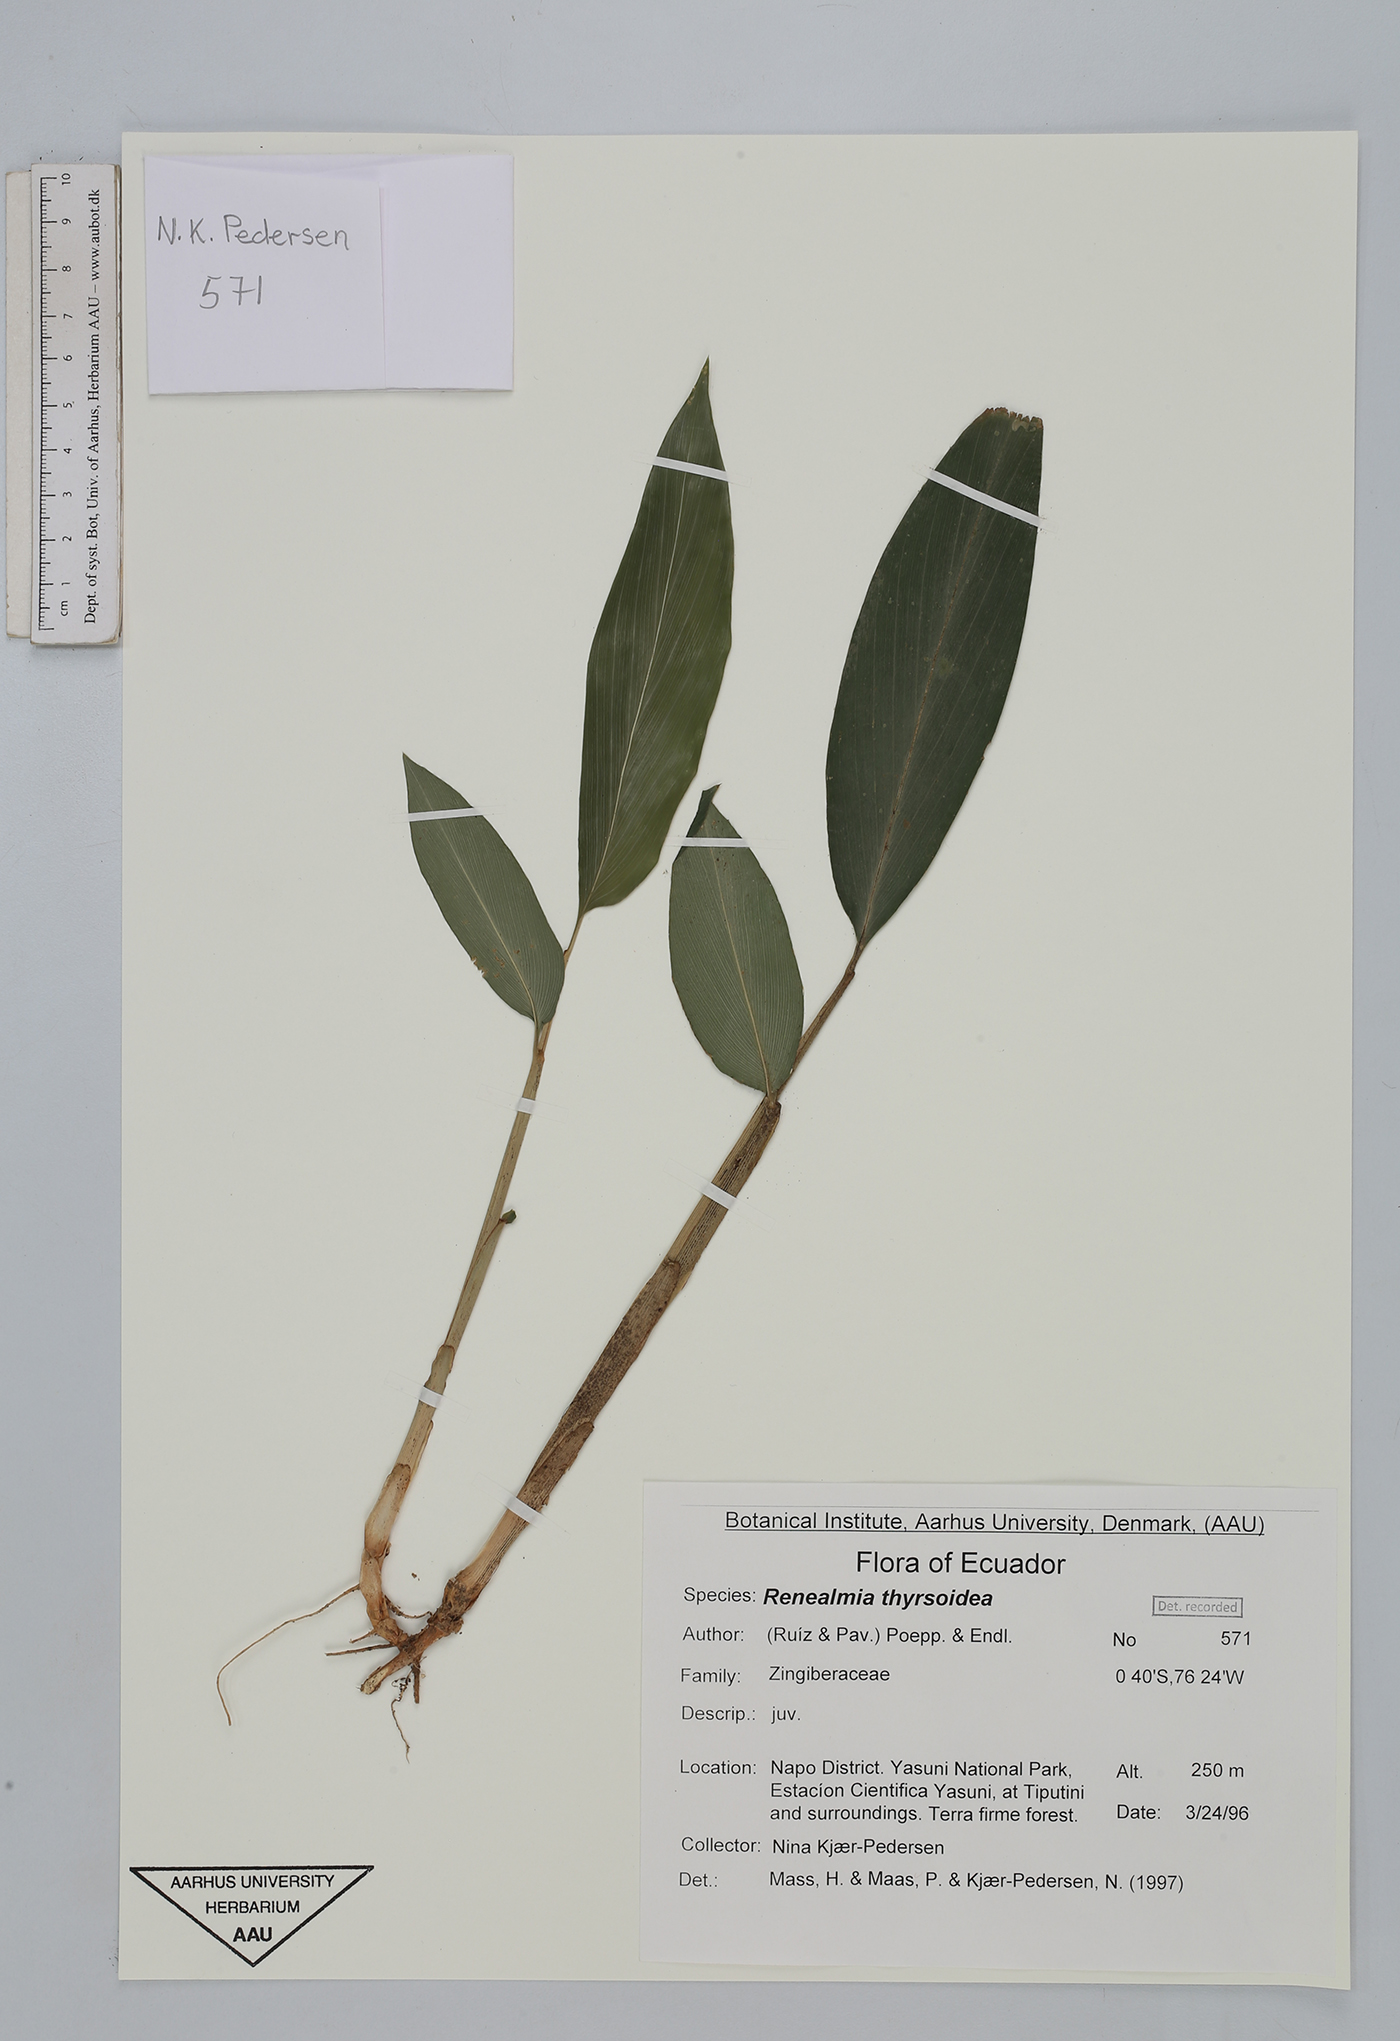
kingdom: Plantae
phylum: Tracheophyta
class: Liliopsida
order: Zingiberales
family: Zingiberaceae
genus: Renealmia
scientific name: Renealmia thyrsoidea
